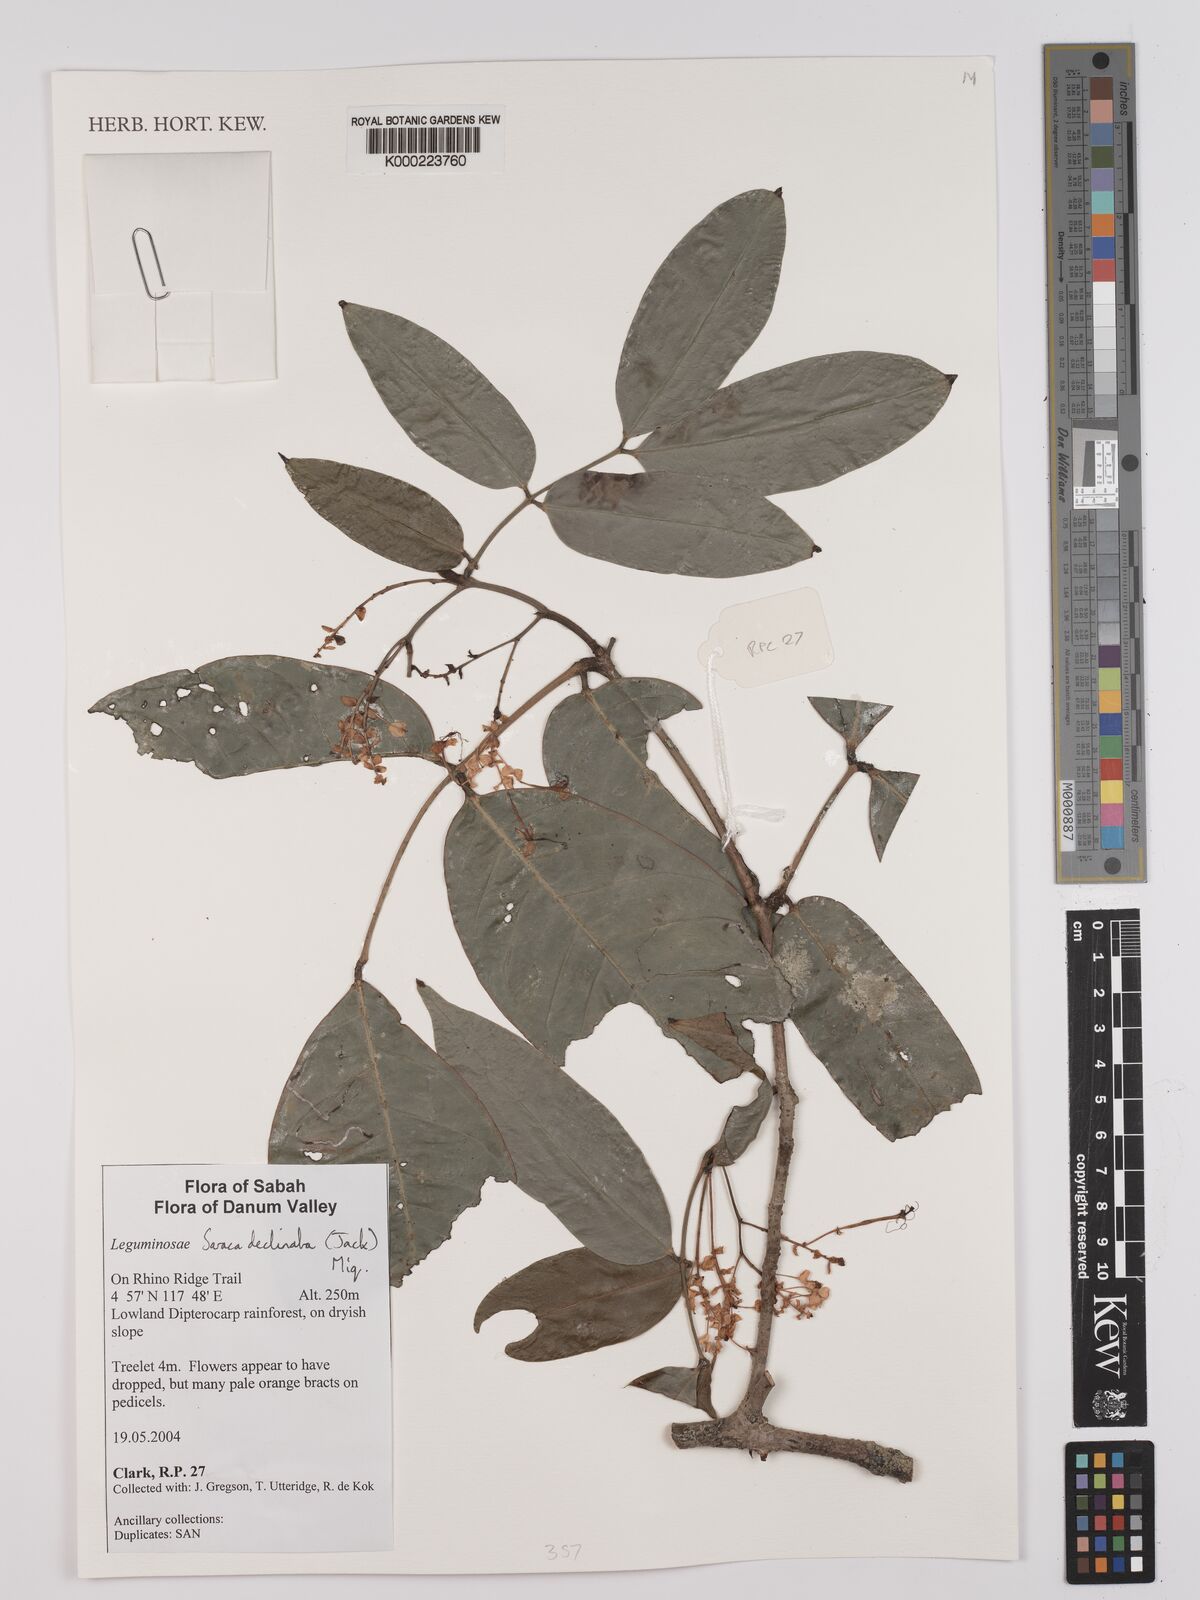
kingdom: Plantae
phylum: Tracheophyta
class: Magnoliopsida
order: Fabales
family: Fabaceae
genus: Saraca
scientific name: Saraca declinata
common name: Red saraca
